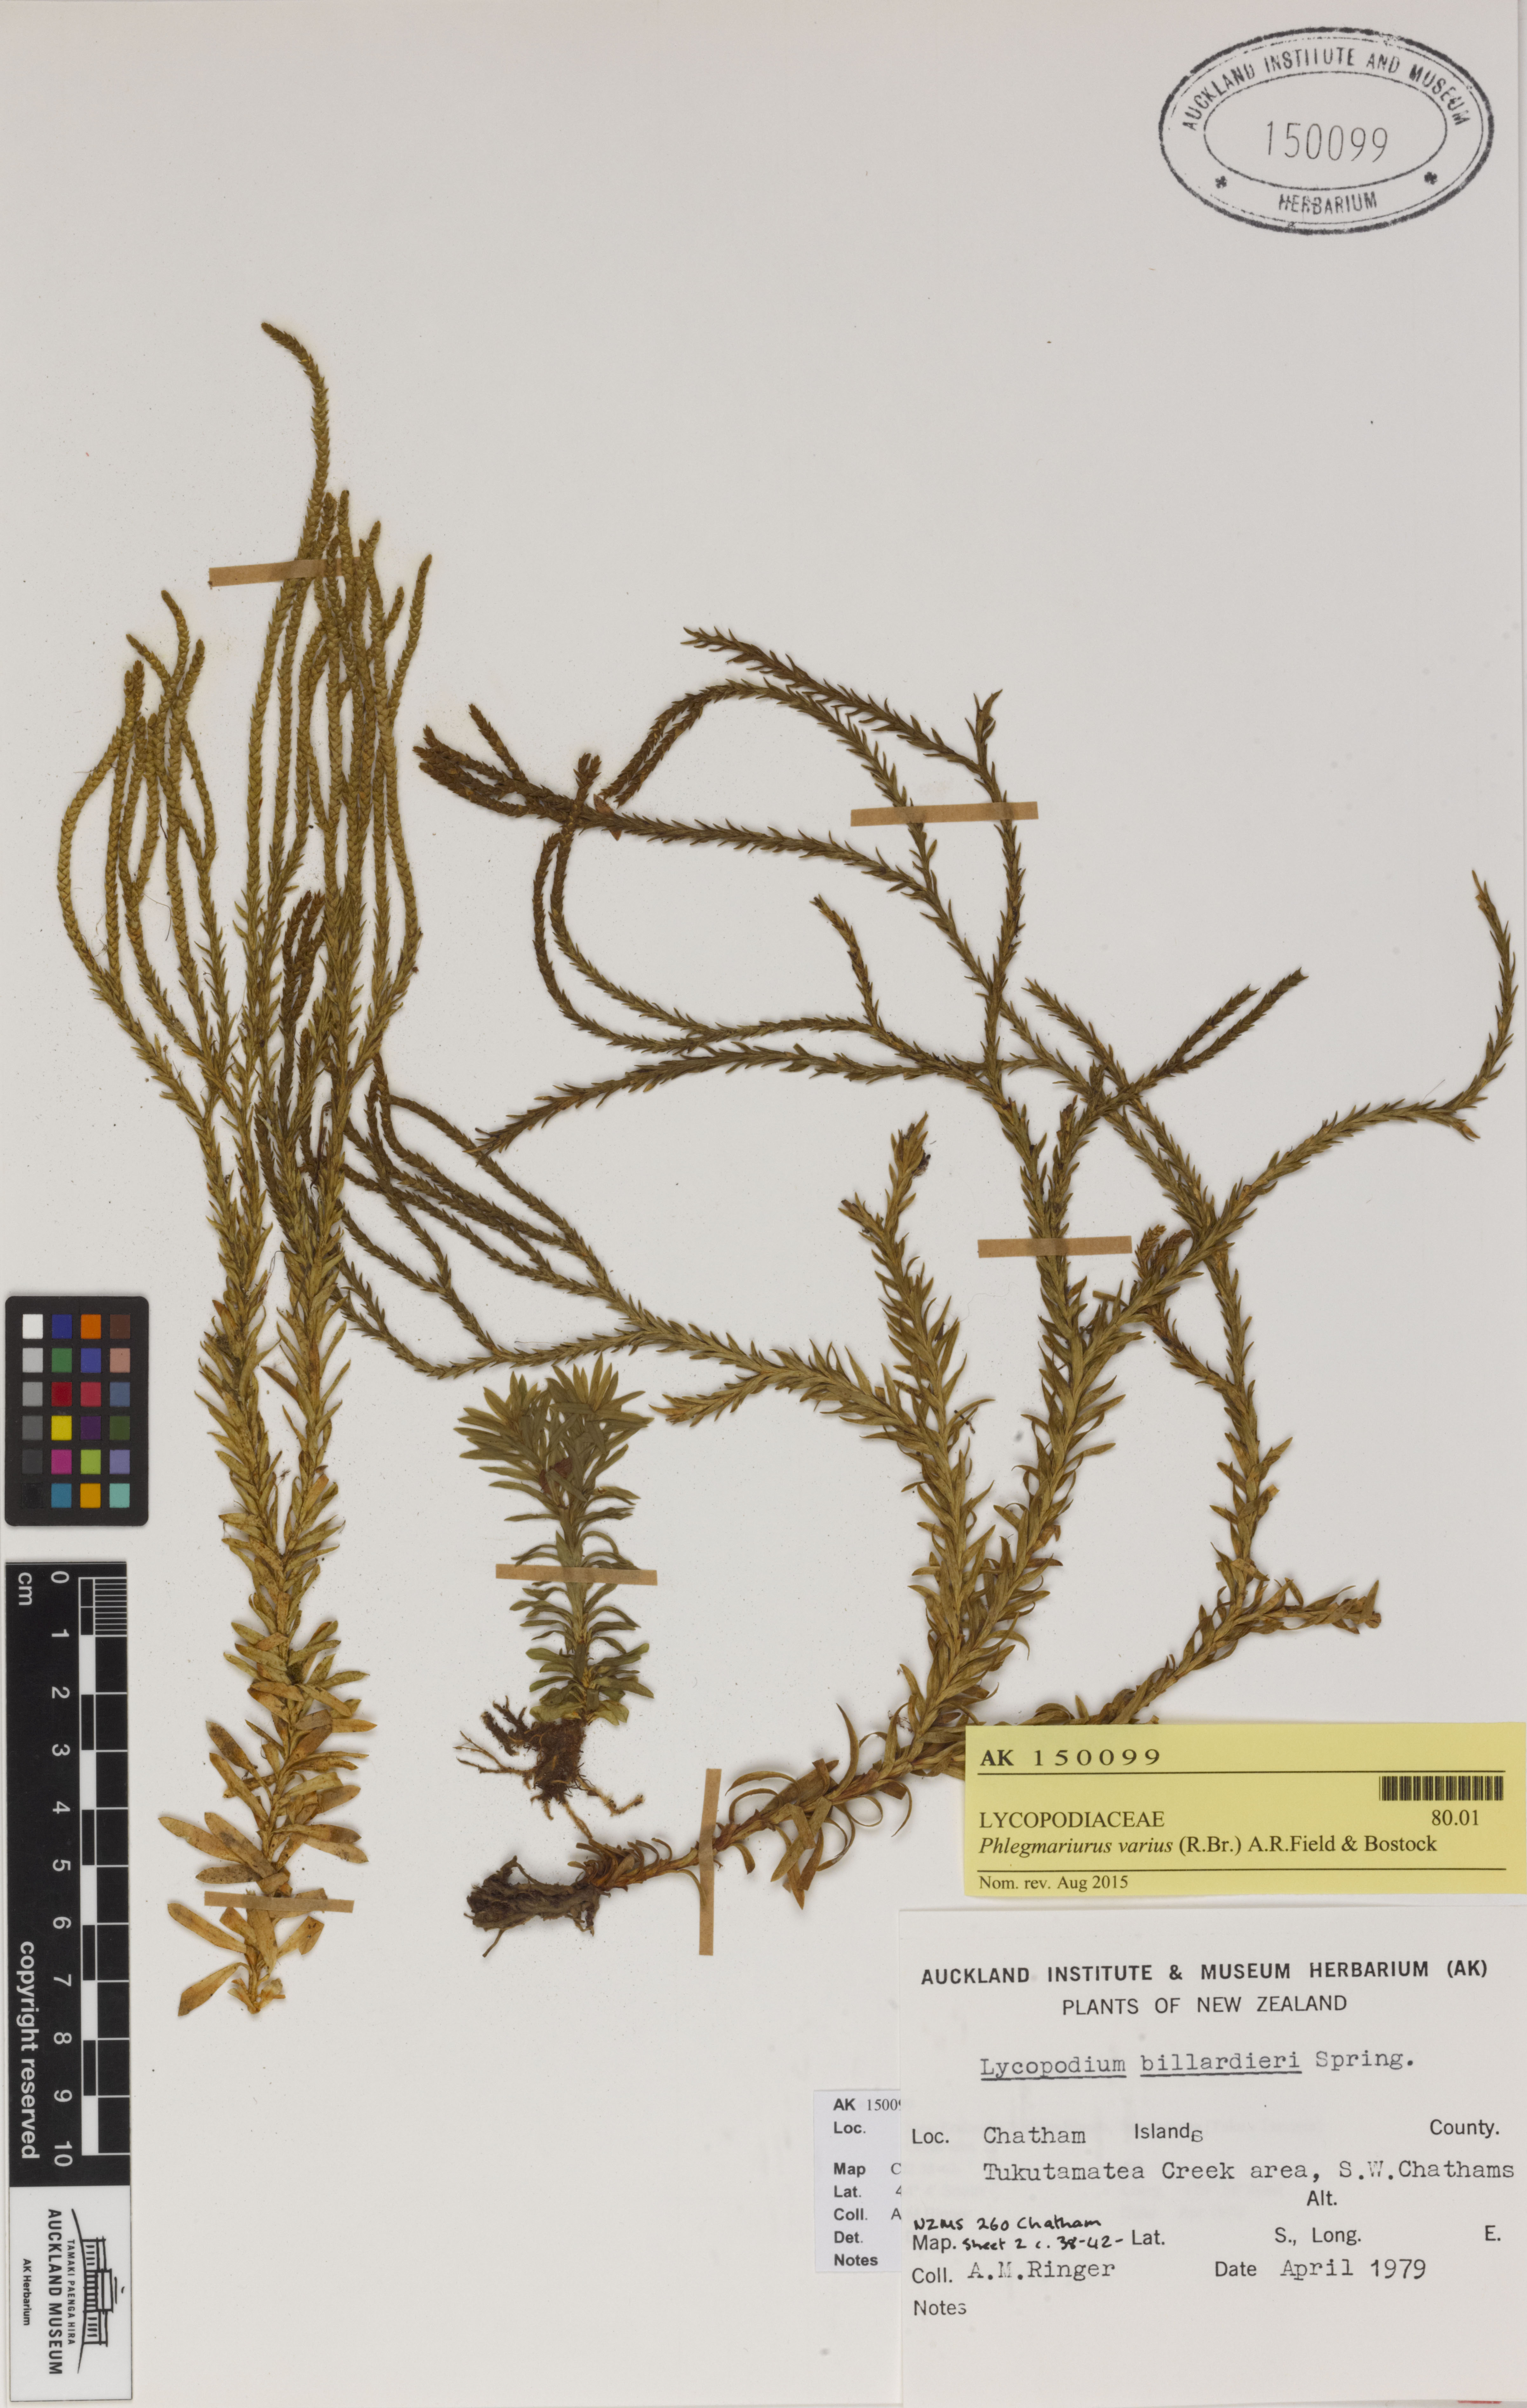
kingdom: Plantae
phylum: Tracheophyta
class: Lycopodiopsida
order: Lycopodiales
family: Lycopodiaceae
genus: Phlegmariurus
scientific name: Phlegmariurus billardierei
